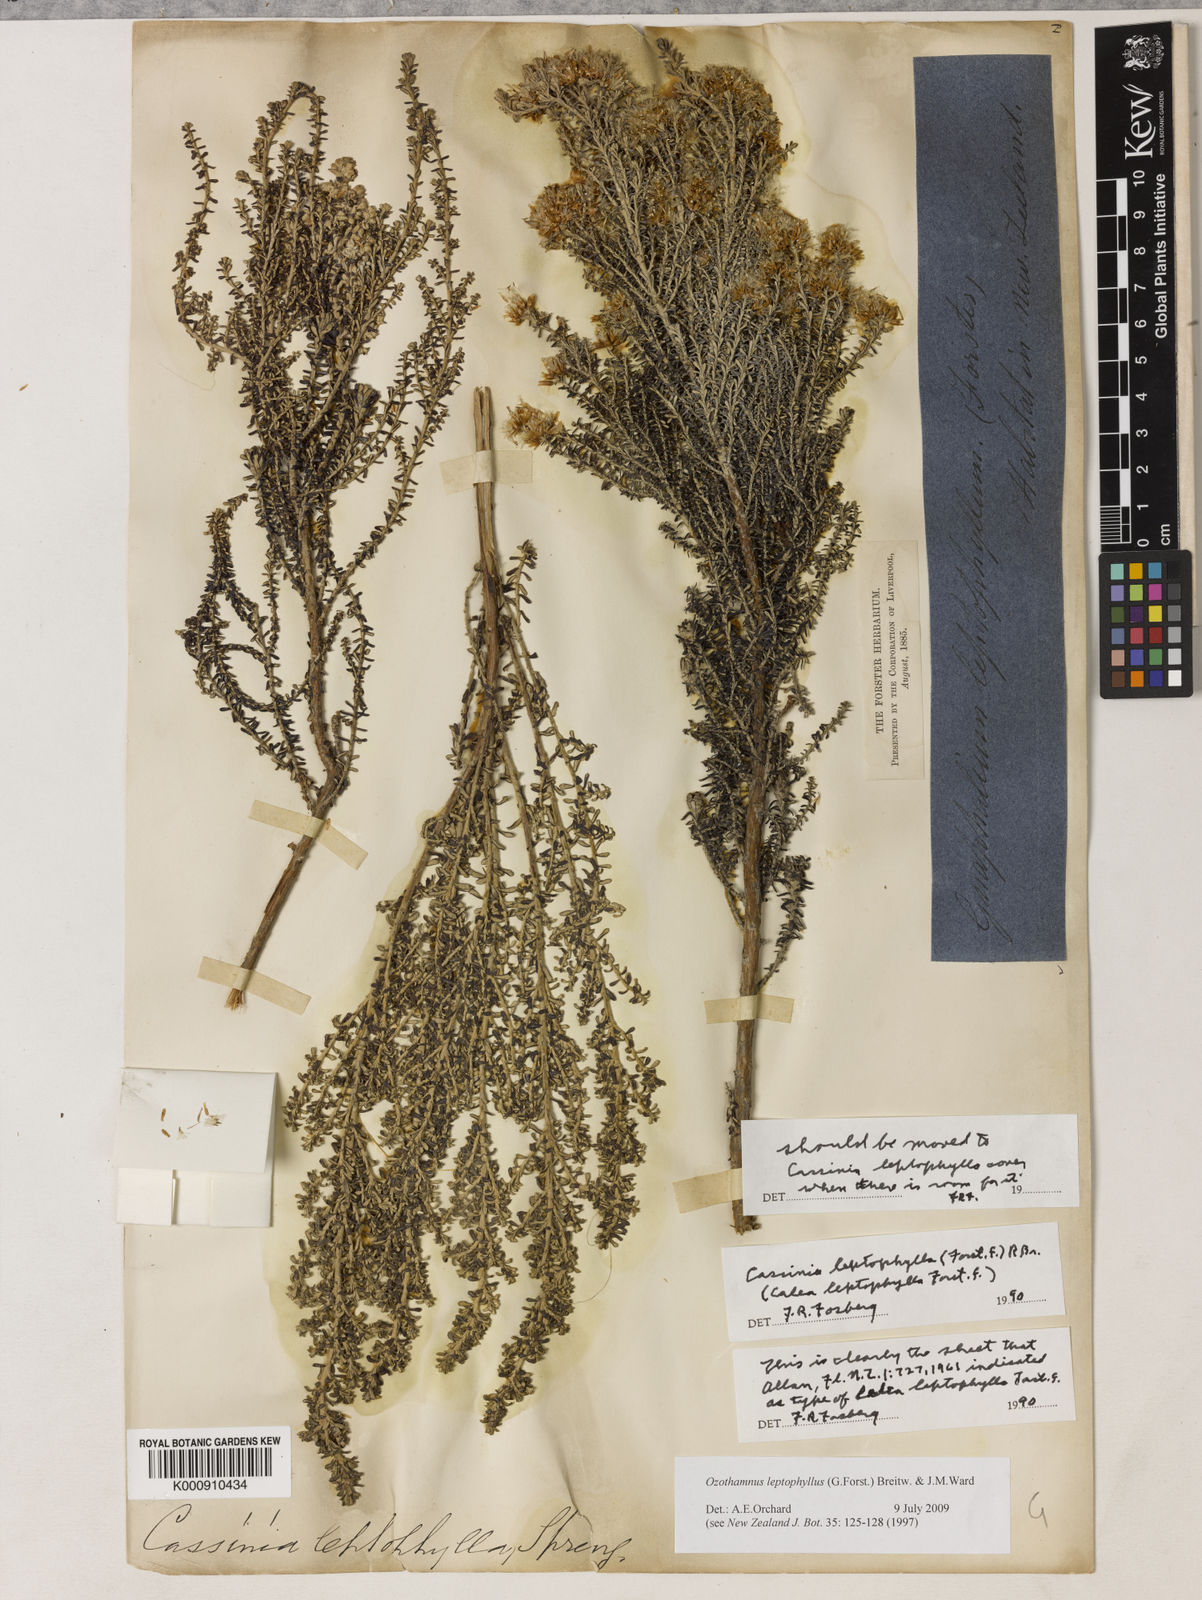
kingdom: Plantae
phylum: Tracheophyta
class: Magnoliopsida
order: Asterales
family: Asteraceae
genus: Ozothamnus
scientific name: Ozothamnus leptophyllus
